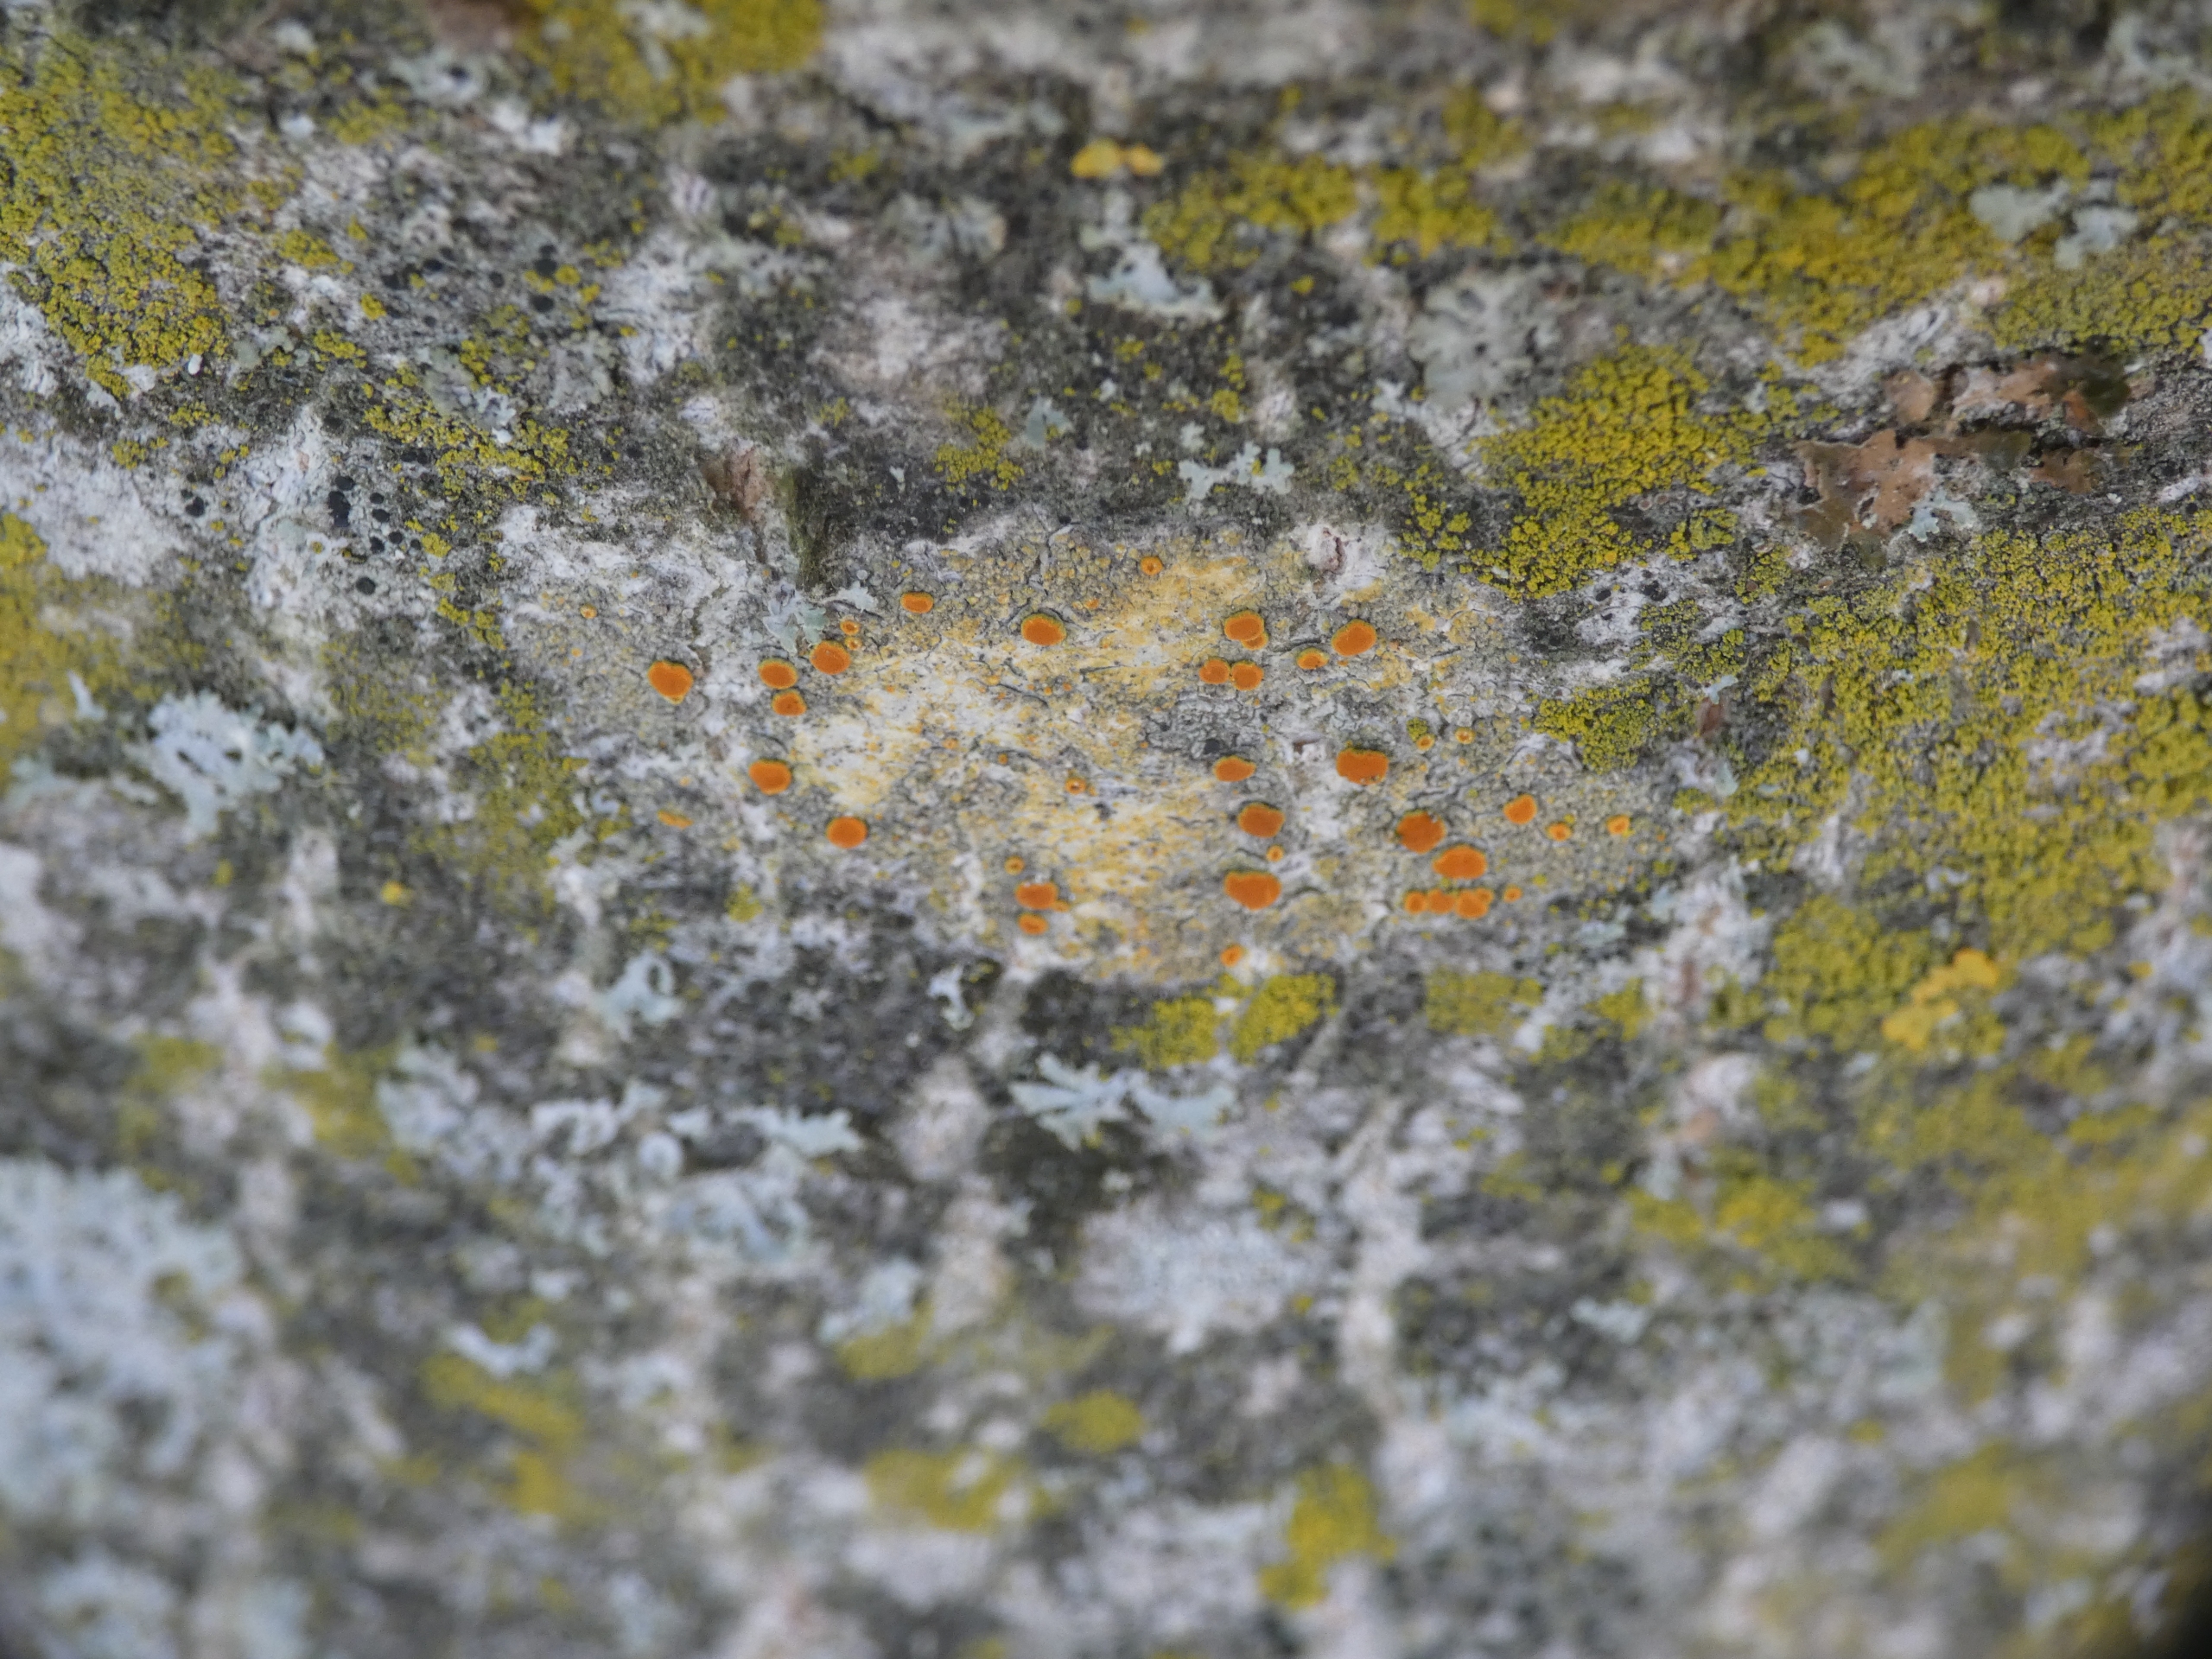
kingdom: Fungi
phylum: Ascomycota
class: Lecanoromycetes
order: Teloschistales
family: Teloschistaceae
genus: Opeltia
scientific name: Opeltia flavorubescens
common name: Aspe-orangelav
